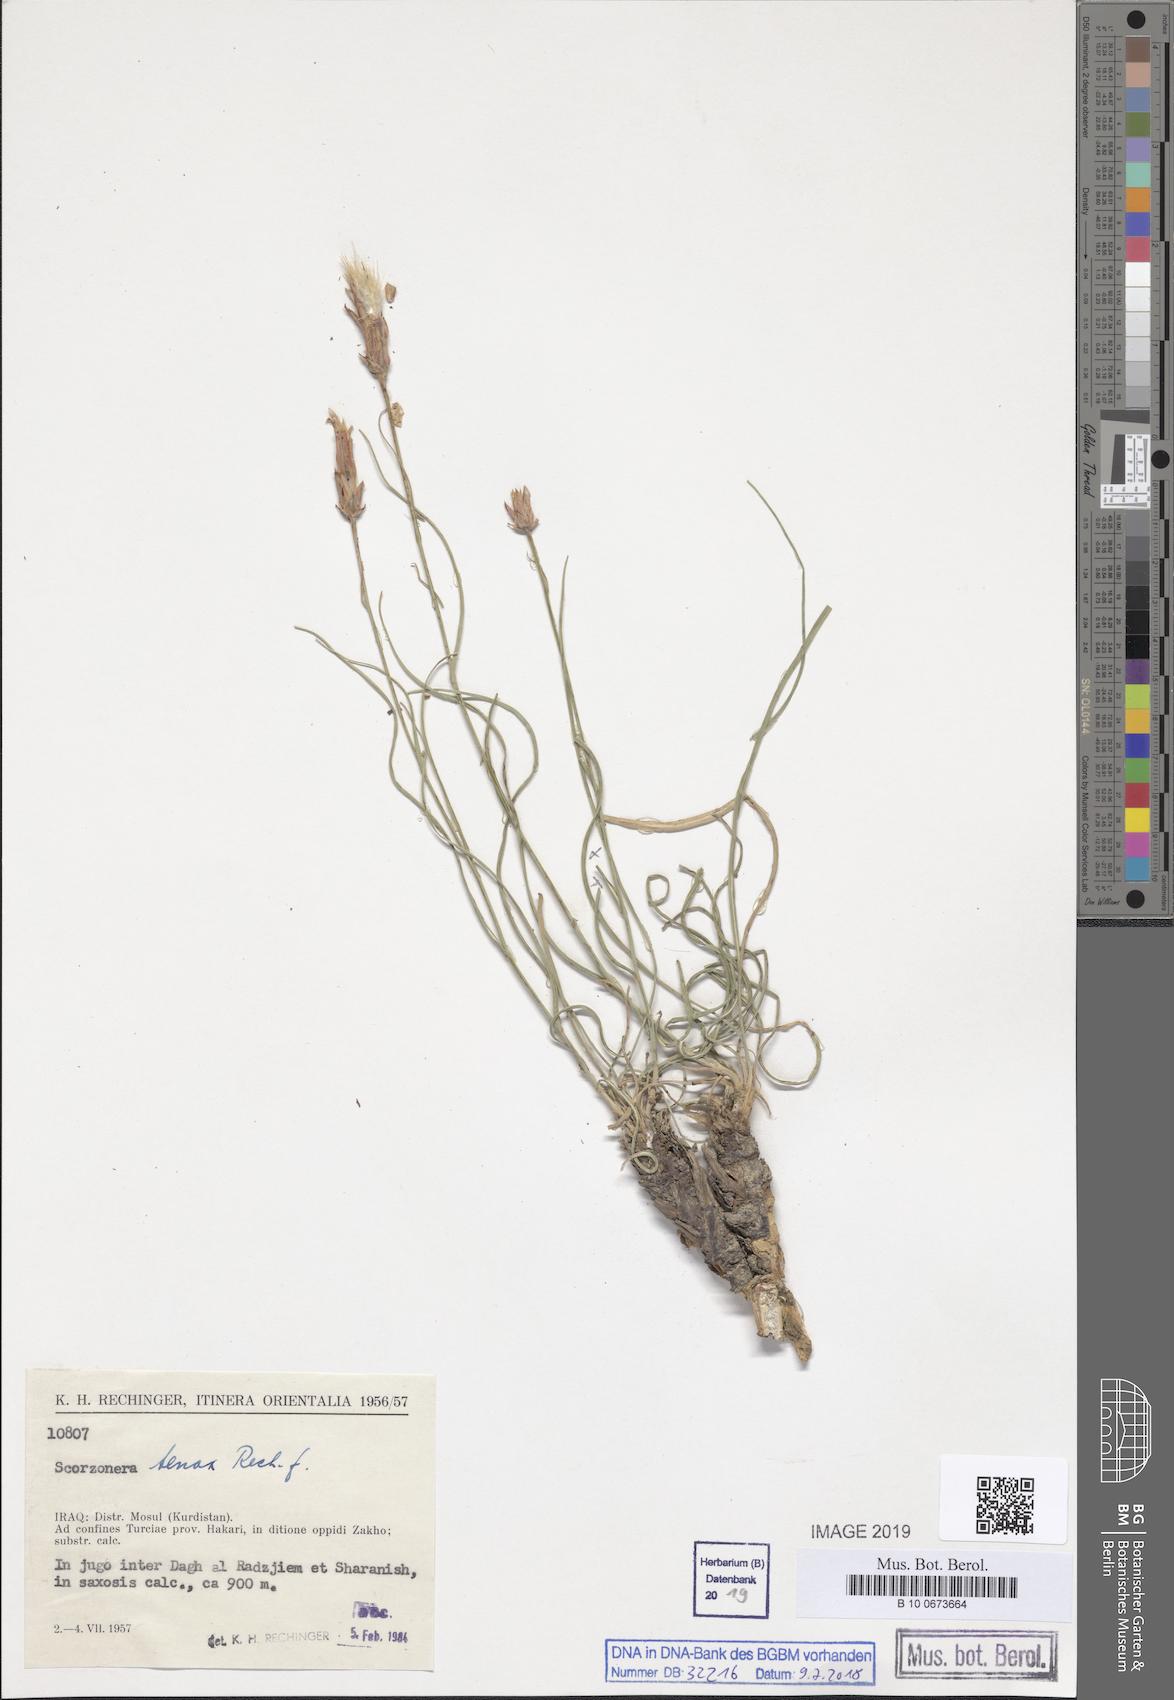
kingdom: Plantae
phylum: Tracheophyta
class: Magnoliopsida
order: Asterales
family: Asteraceae
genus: Candollea
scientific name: Candollea davisii
